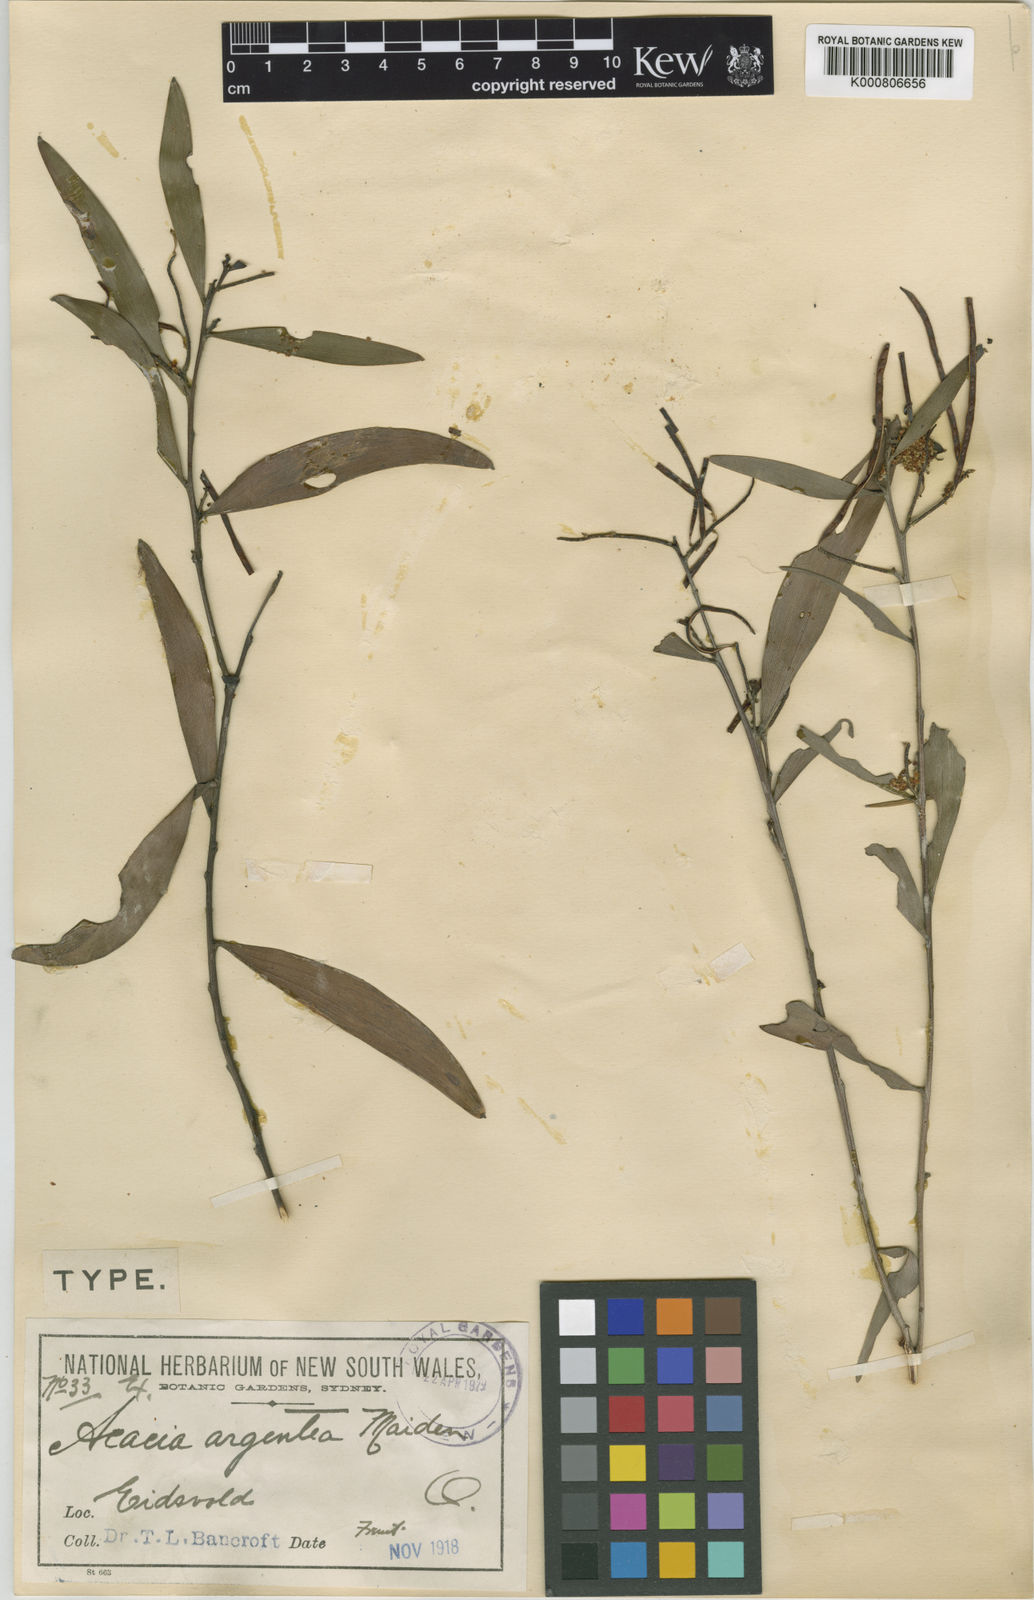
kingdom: Plantae
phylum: Tracheophyta
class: Magnoliopsida
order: Fabales
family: Fabaceae
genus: Acacia
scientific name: Acacia leptostachya
